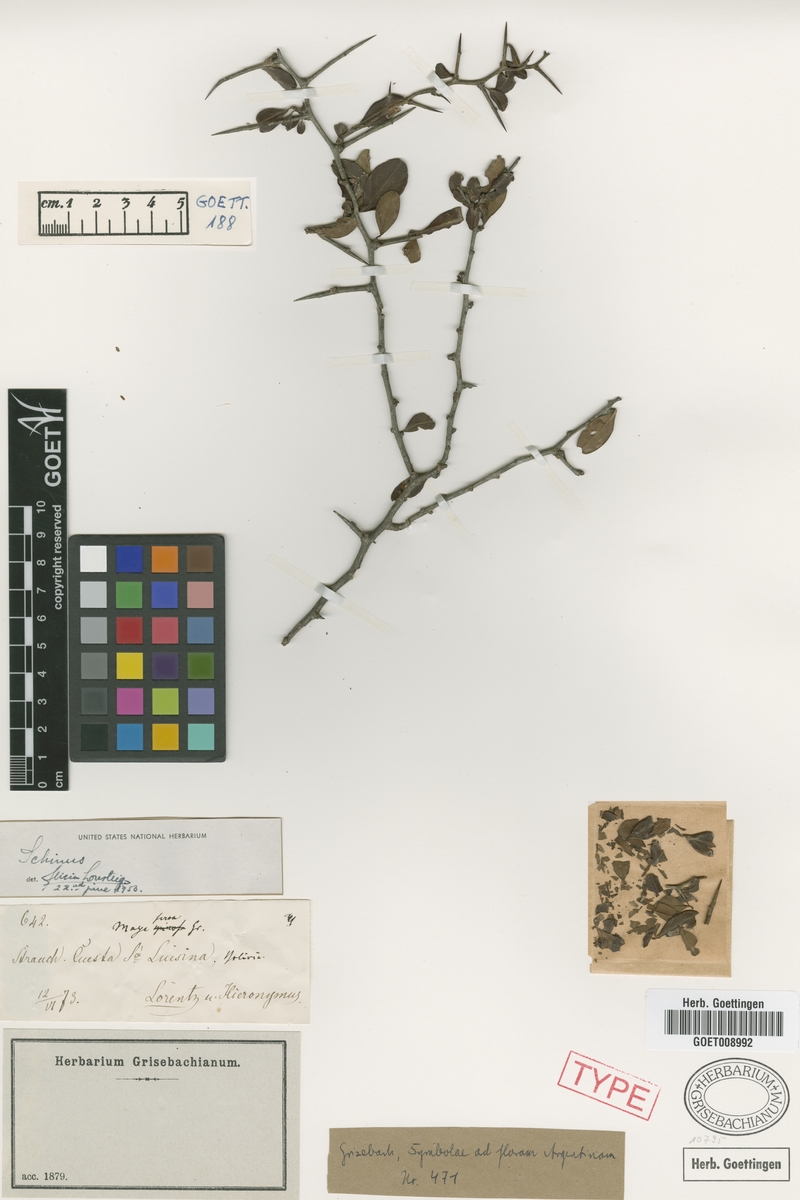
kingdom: Plantae
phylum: Tracheophyta
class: Magnoliopsida
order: Sapindales
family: Anacardiaceae
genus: Schinus
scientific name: Schinus myrtifolia
